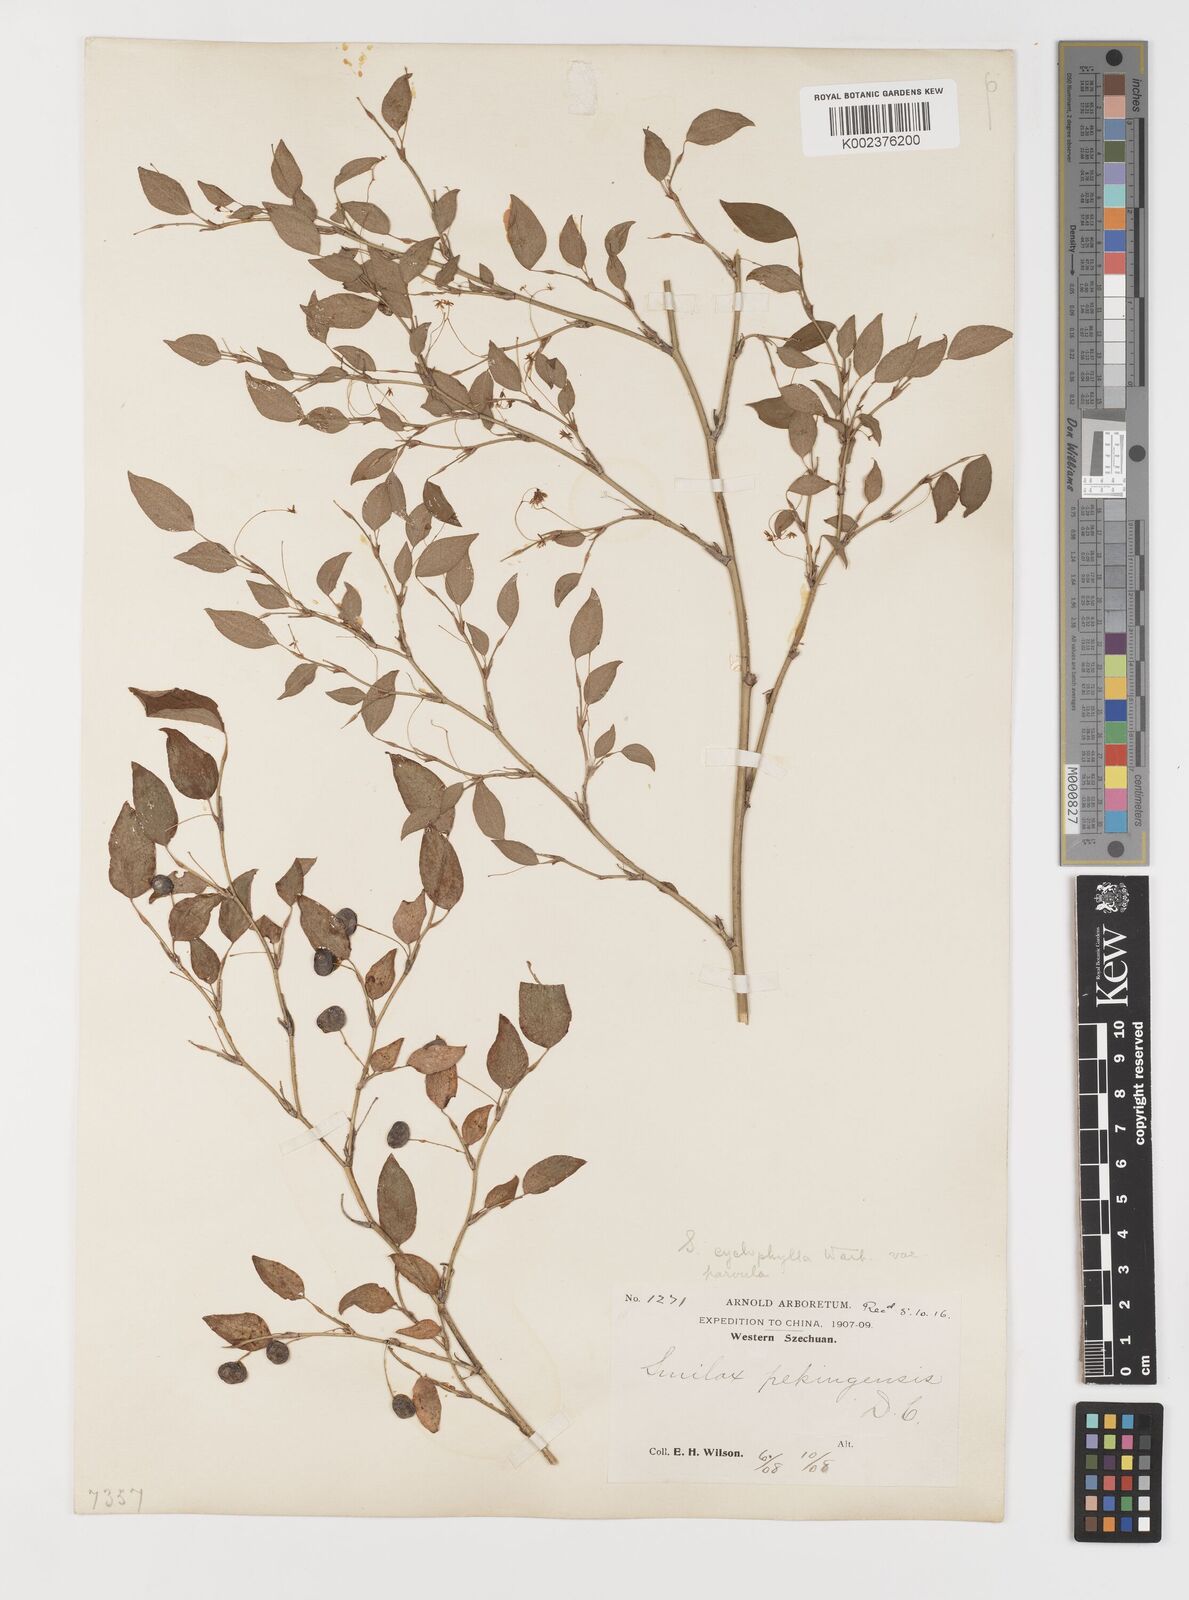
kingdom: Plantae
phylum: Tracheophyta
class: Liliopsida
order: Liliales
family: Smilacaceae
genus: Smilax
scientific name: Smilax neocyclophylla
